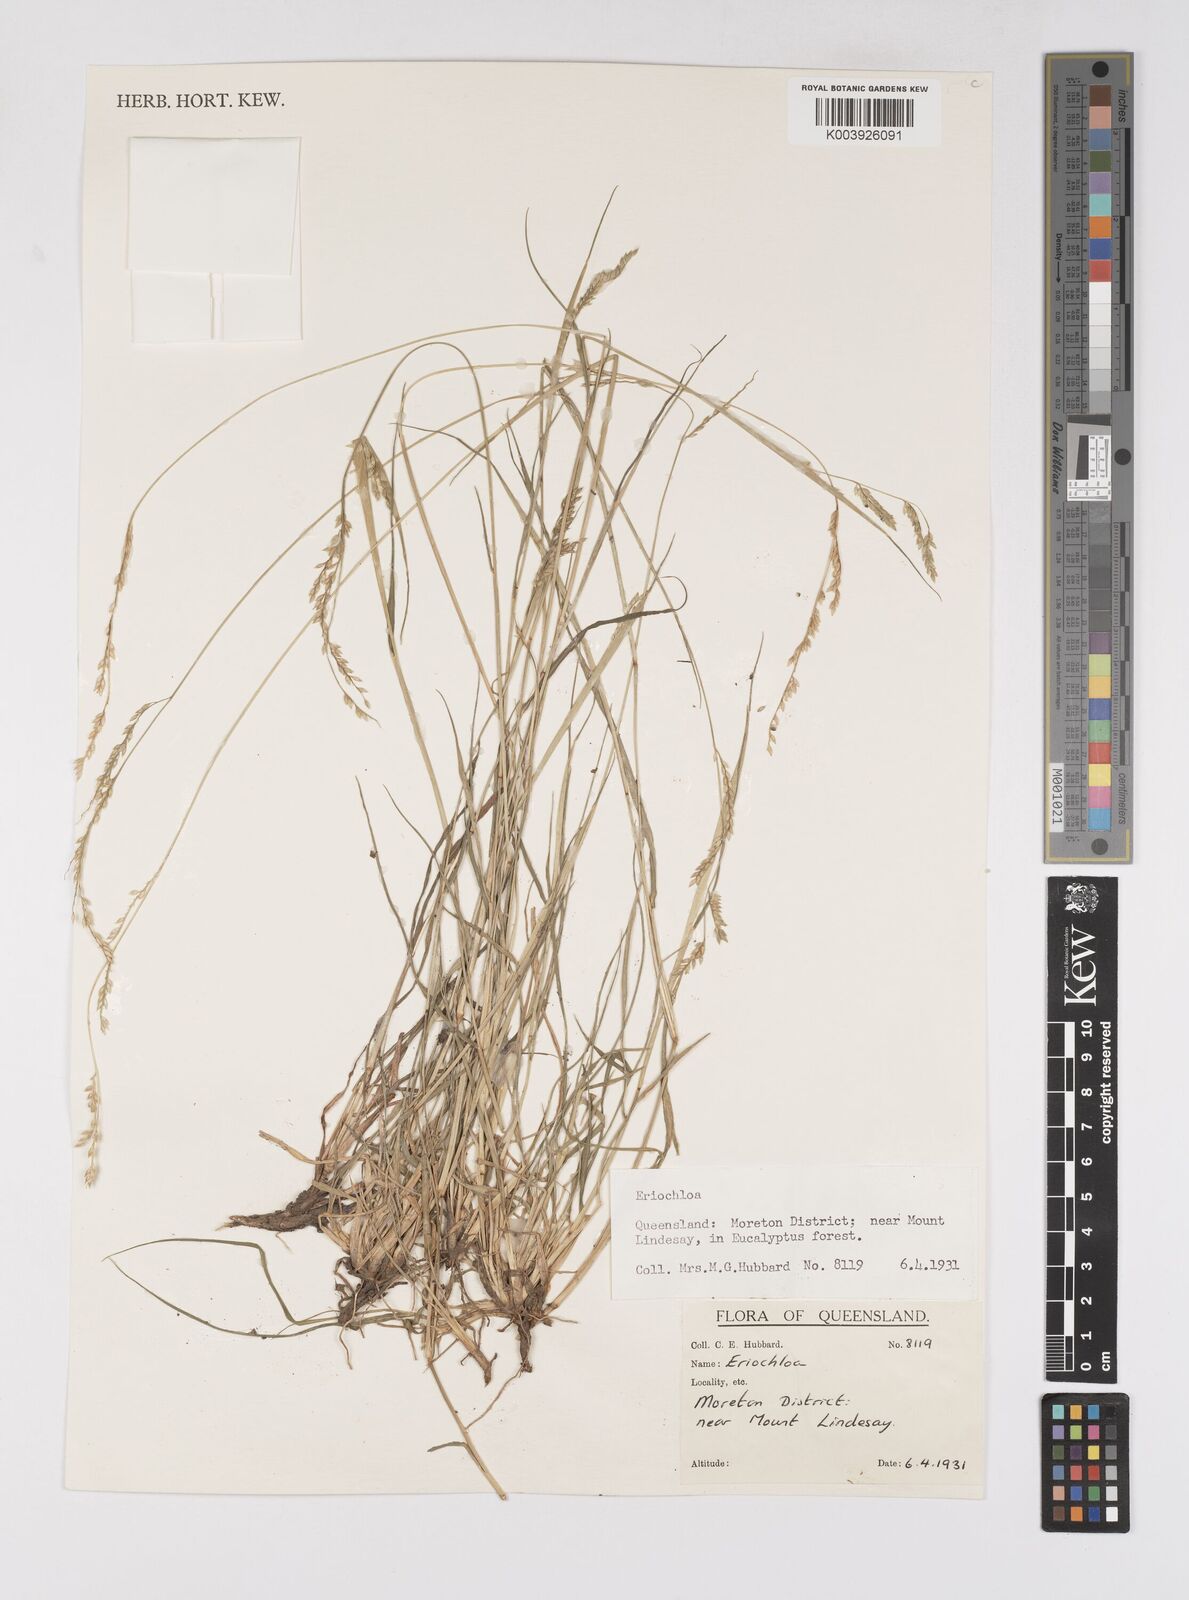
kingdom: Plantae
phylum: Tracheophyta
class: Liliopsida
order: Poales
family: Poaceae
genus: Eriochloa
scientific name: Eriochloa
